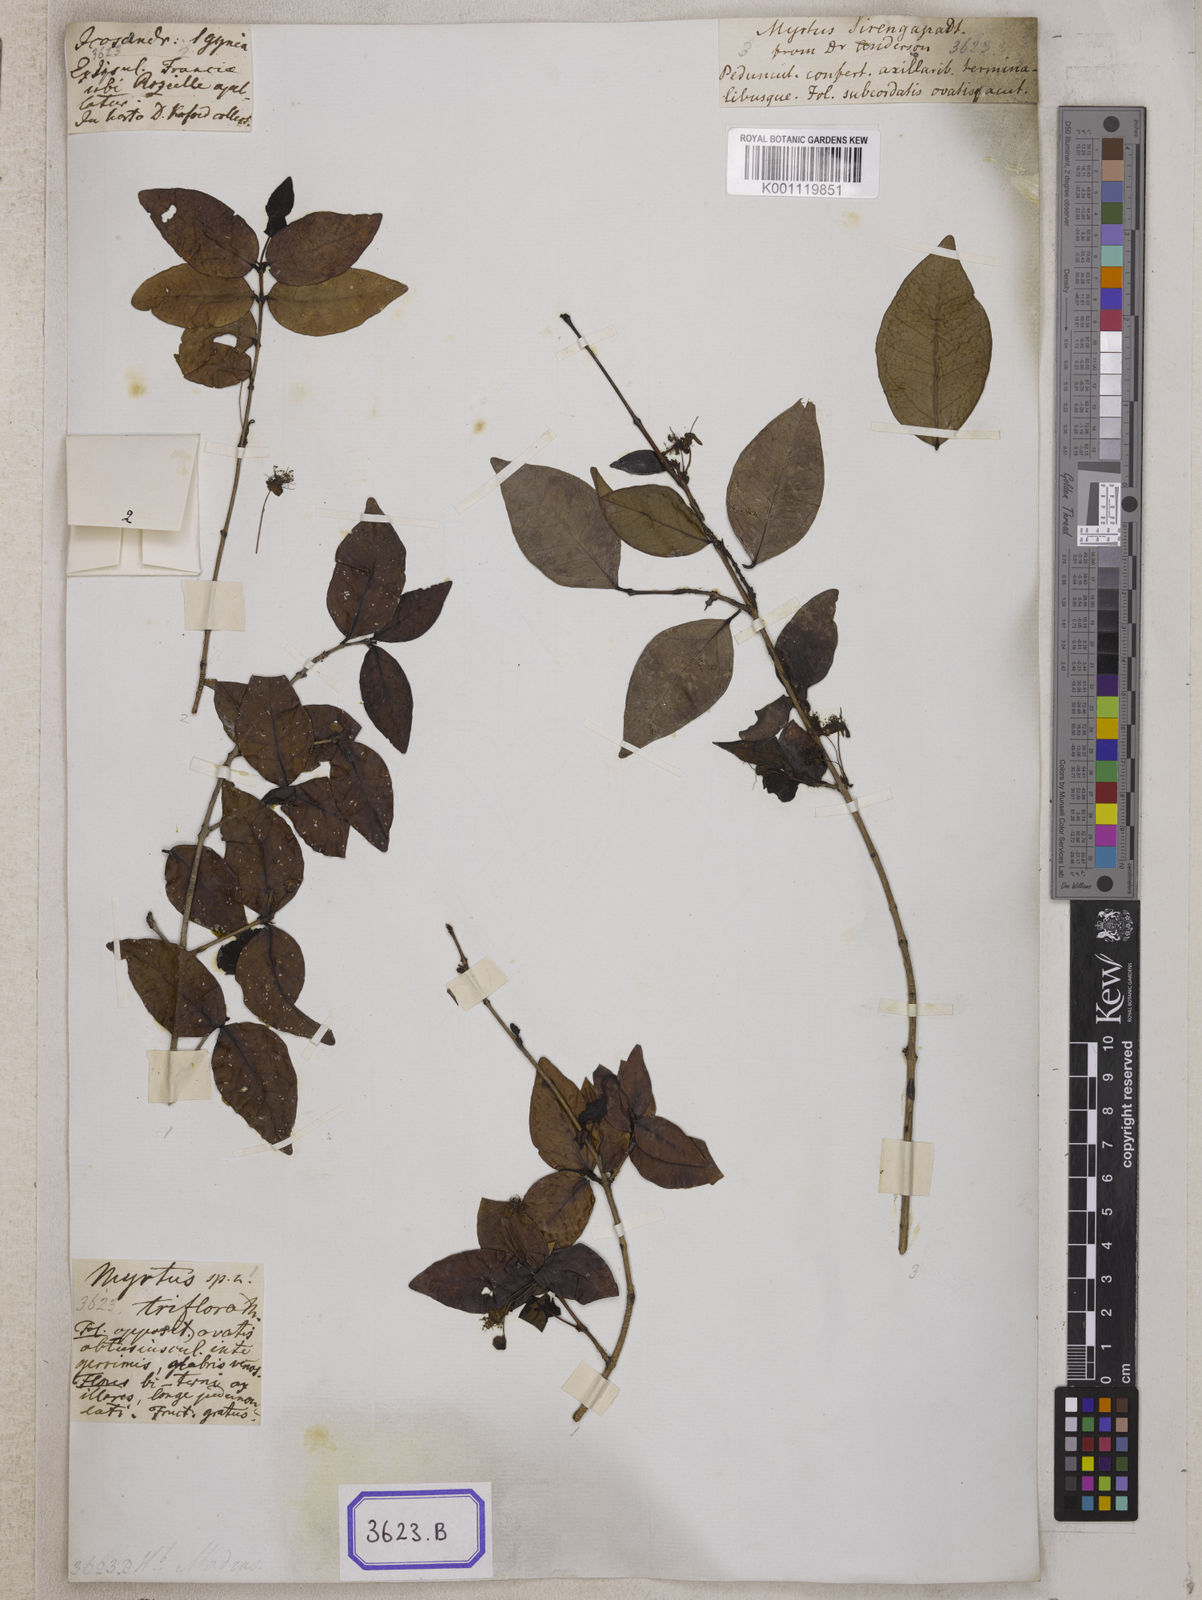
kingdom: Plantae
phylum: Tracheophyta
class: Magnoliopsida
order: Myrtales
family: Myrtaceae
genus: Eugenia
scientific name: Eugenia uniflora
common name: Surinam cherry
